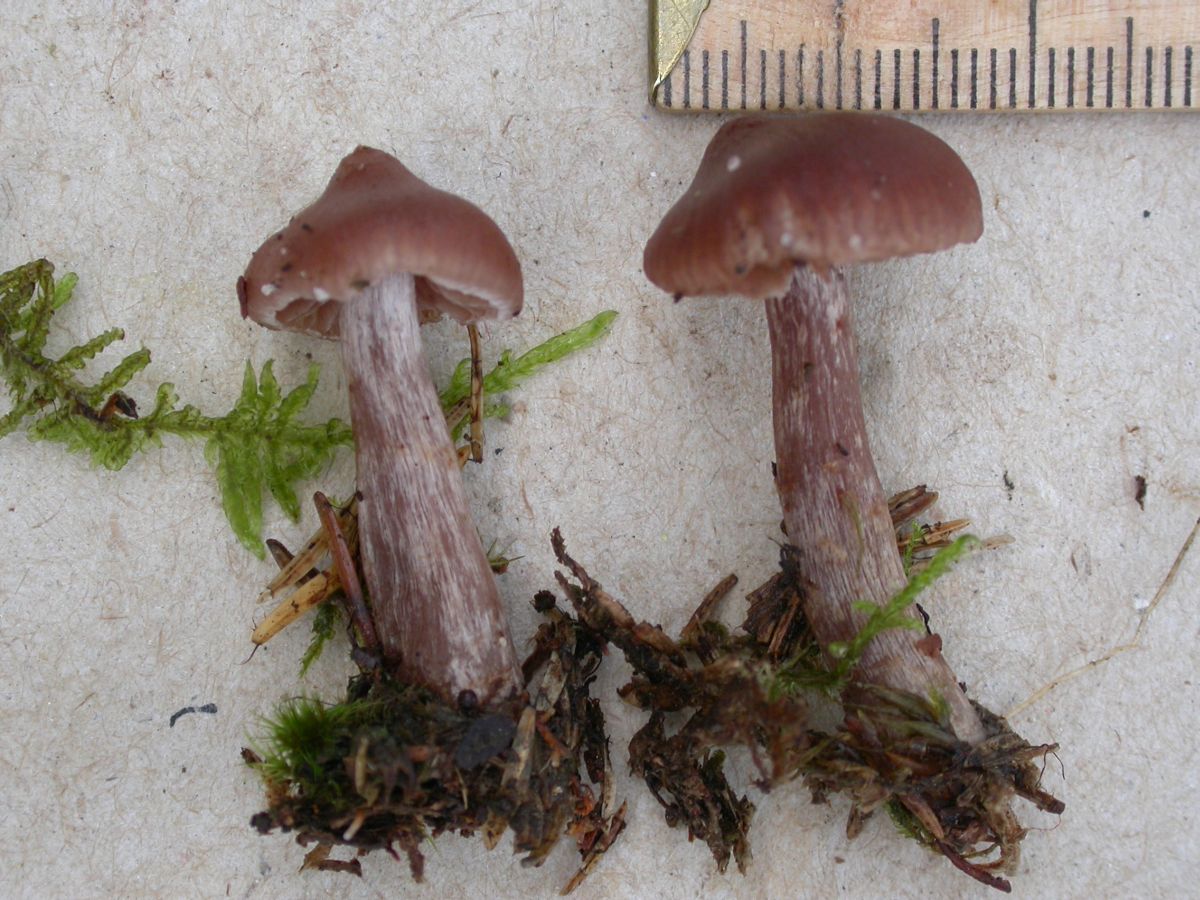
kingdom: Fungi
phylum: Basidiomycota
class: Agaricomycetes
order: Agaricales
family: Cortinariaceae
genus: Cortinarius
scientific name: Cortinarius glandicolor
